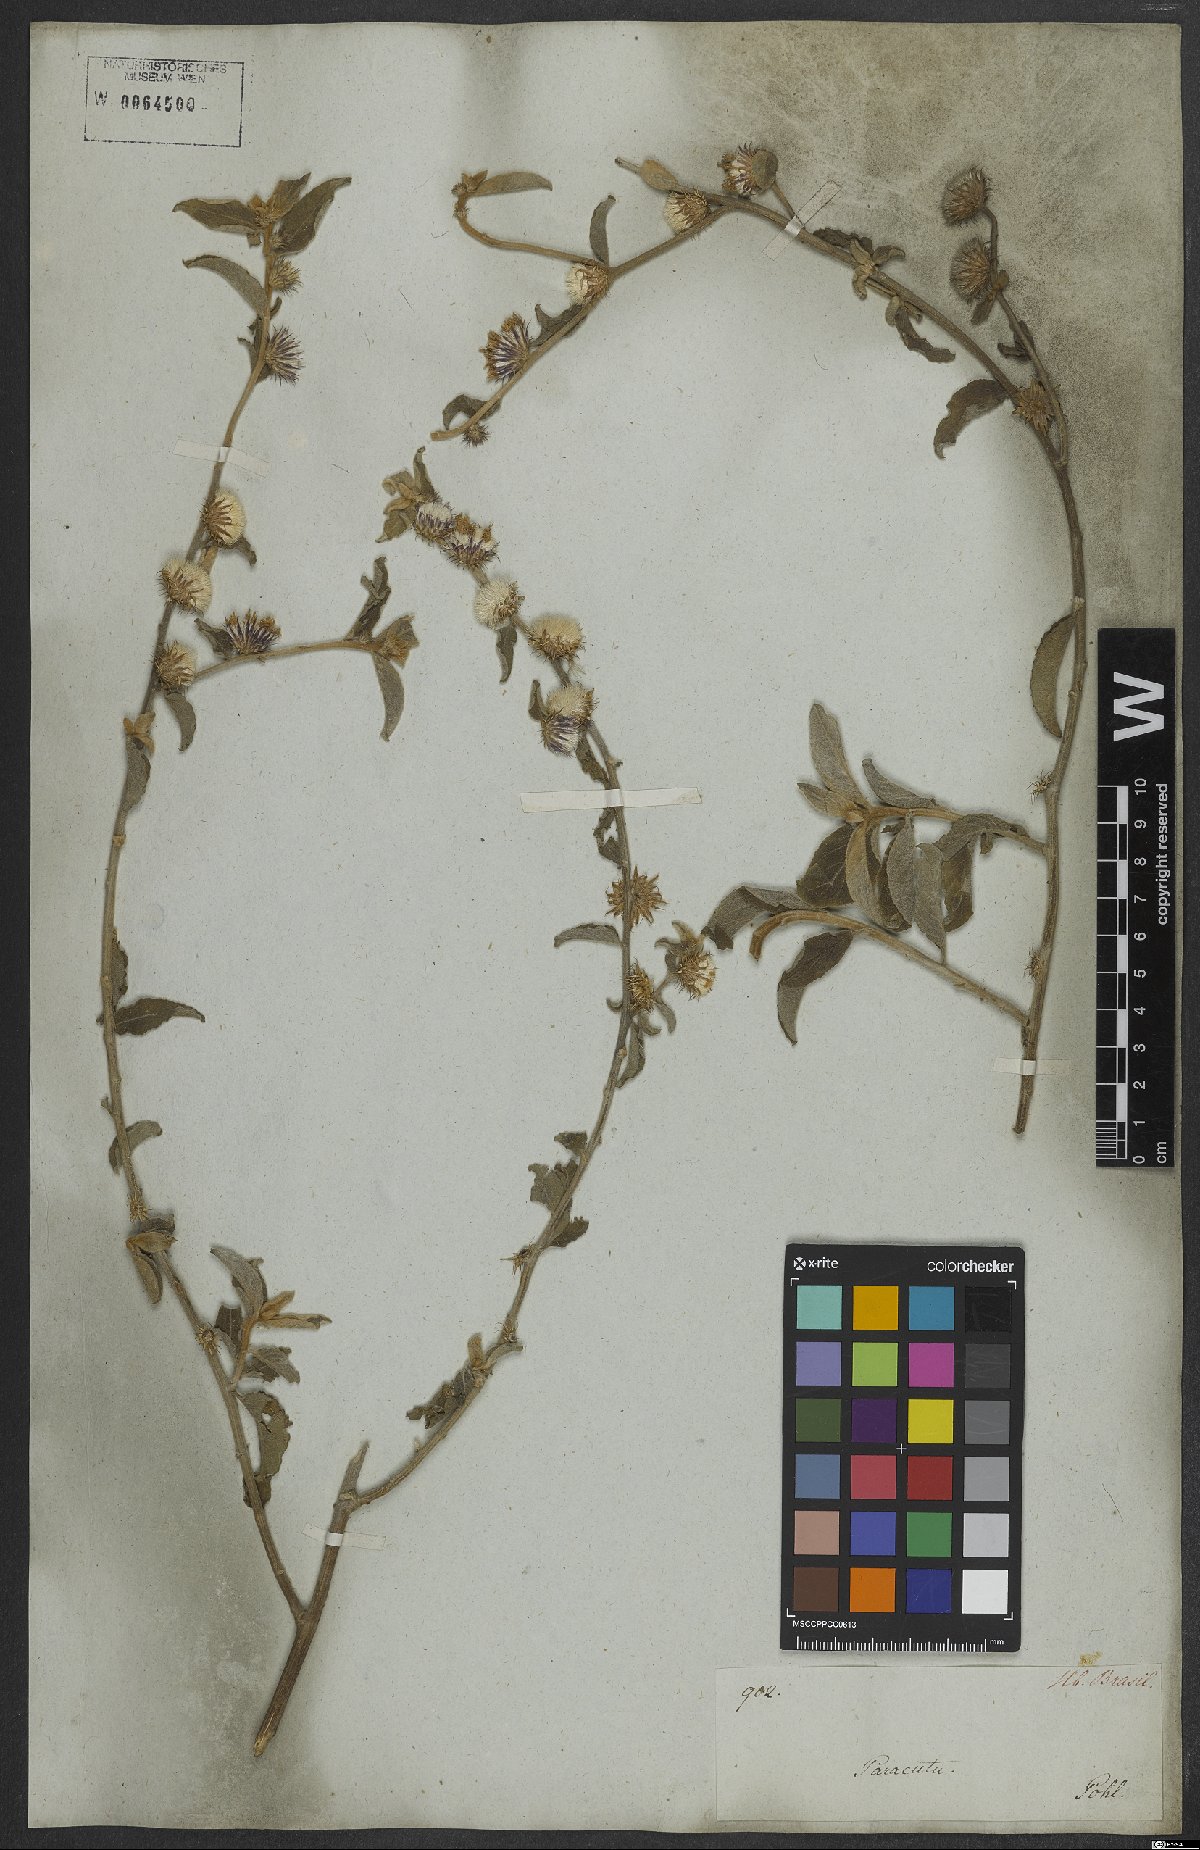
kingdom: Plantae
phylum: Tracheophyta
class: Magnoliopsida
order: Asterales
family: Asteraceae
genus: Lepidaploa
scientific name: Lepidaploa aurea
